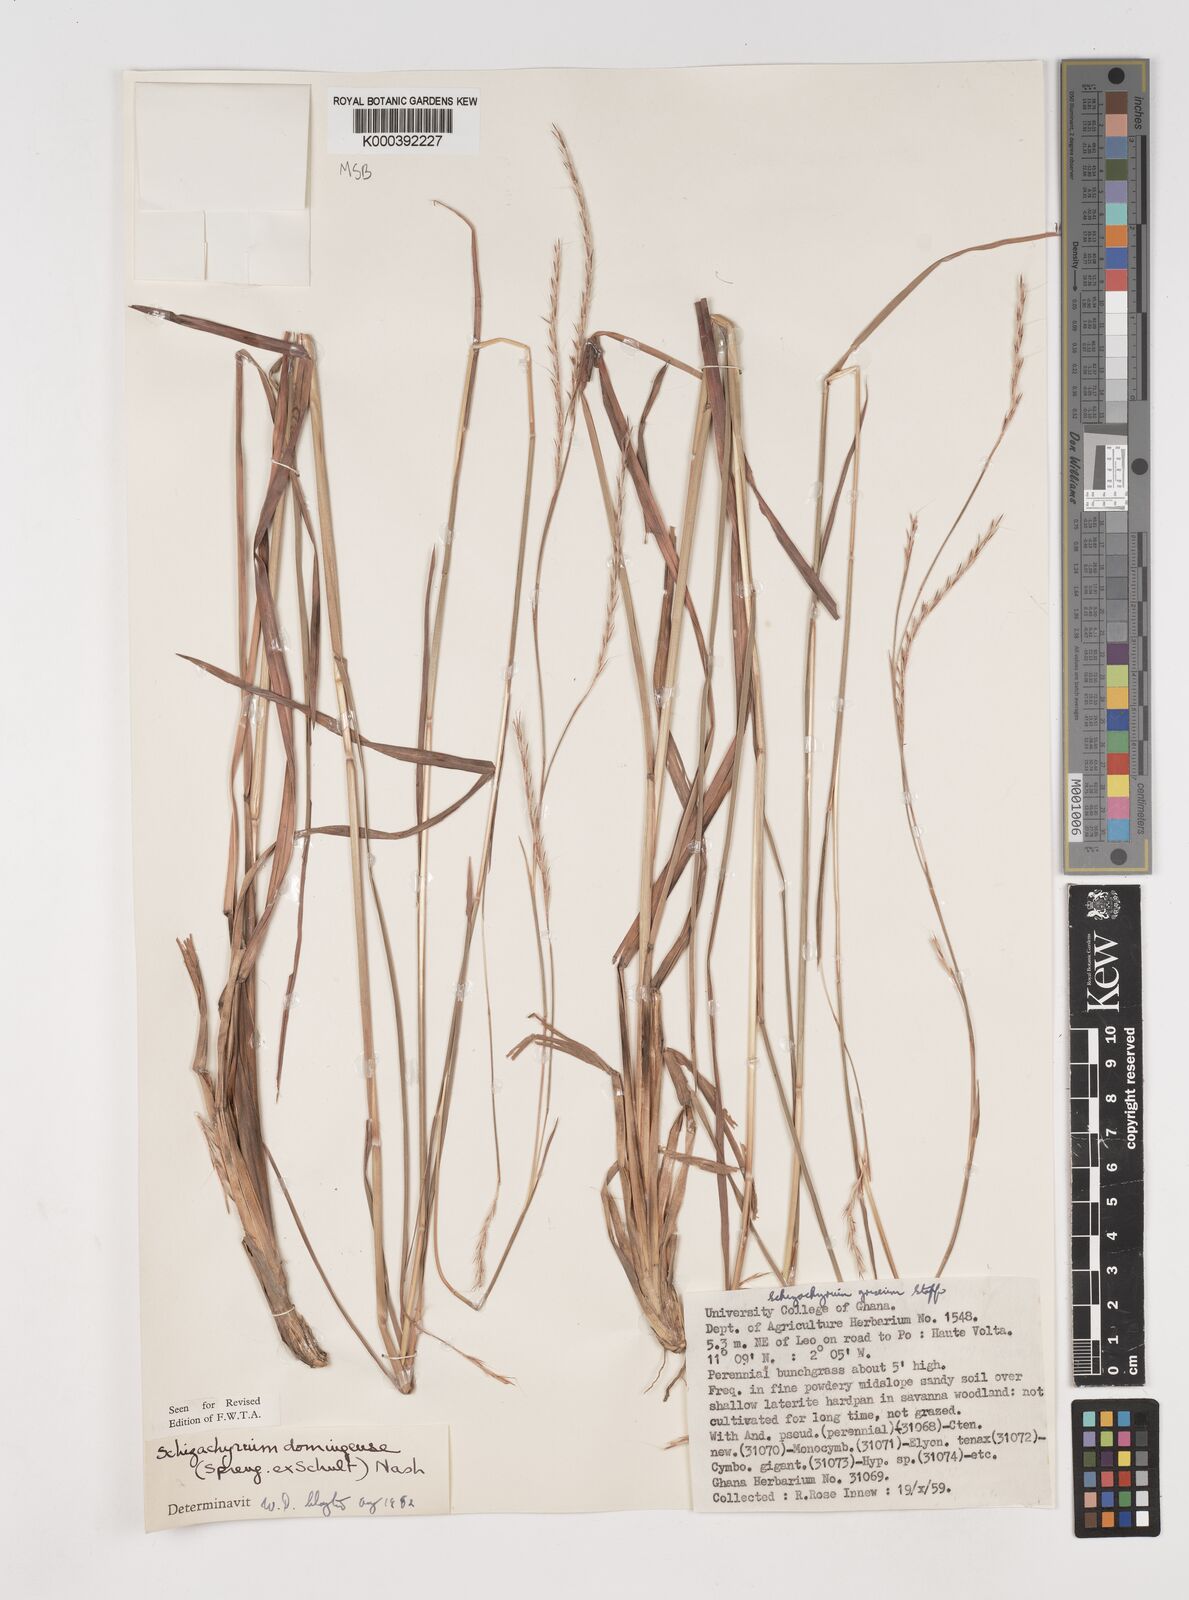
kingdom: Plantae
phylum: Tracheophyta
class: Liliopsida
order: Poales
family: Poaceae
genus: Schizachyrium
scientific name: Schizachyrium sanguineum
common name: Crimson bluestem
